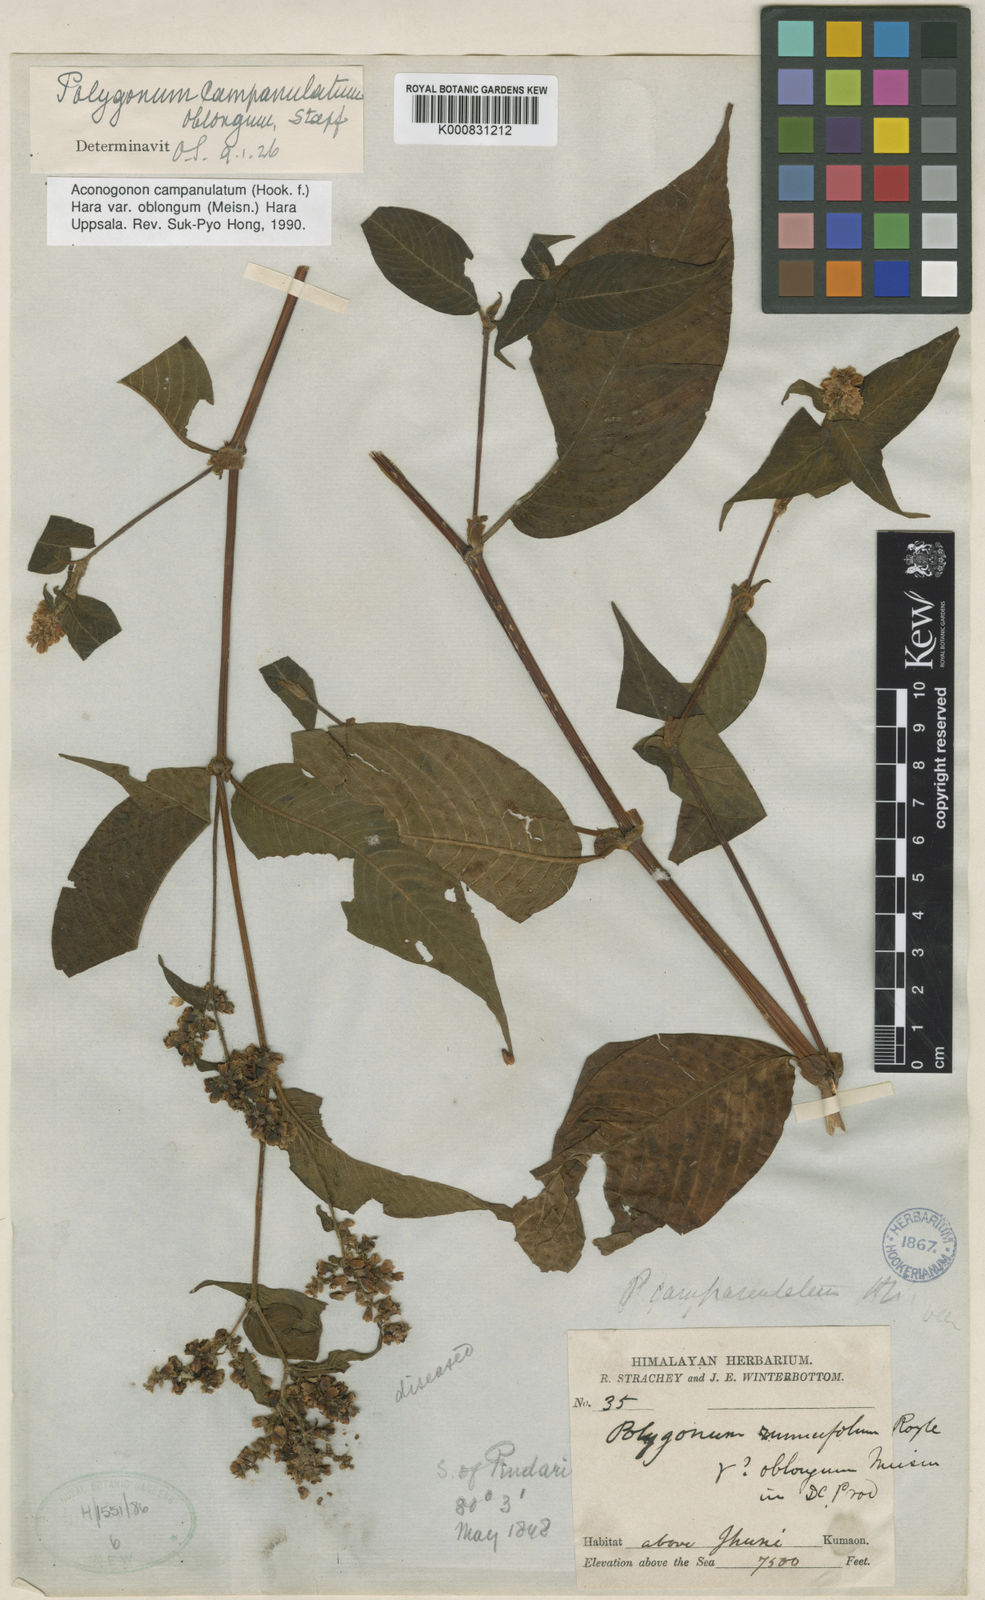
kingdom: Plantae
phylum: Tracheophyta
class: Magnoliopsida
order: Caryophyllales
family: Polygonaceae
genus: Koenigia
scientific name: Koenigia campanulata
